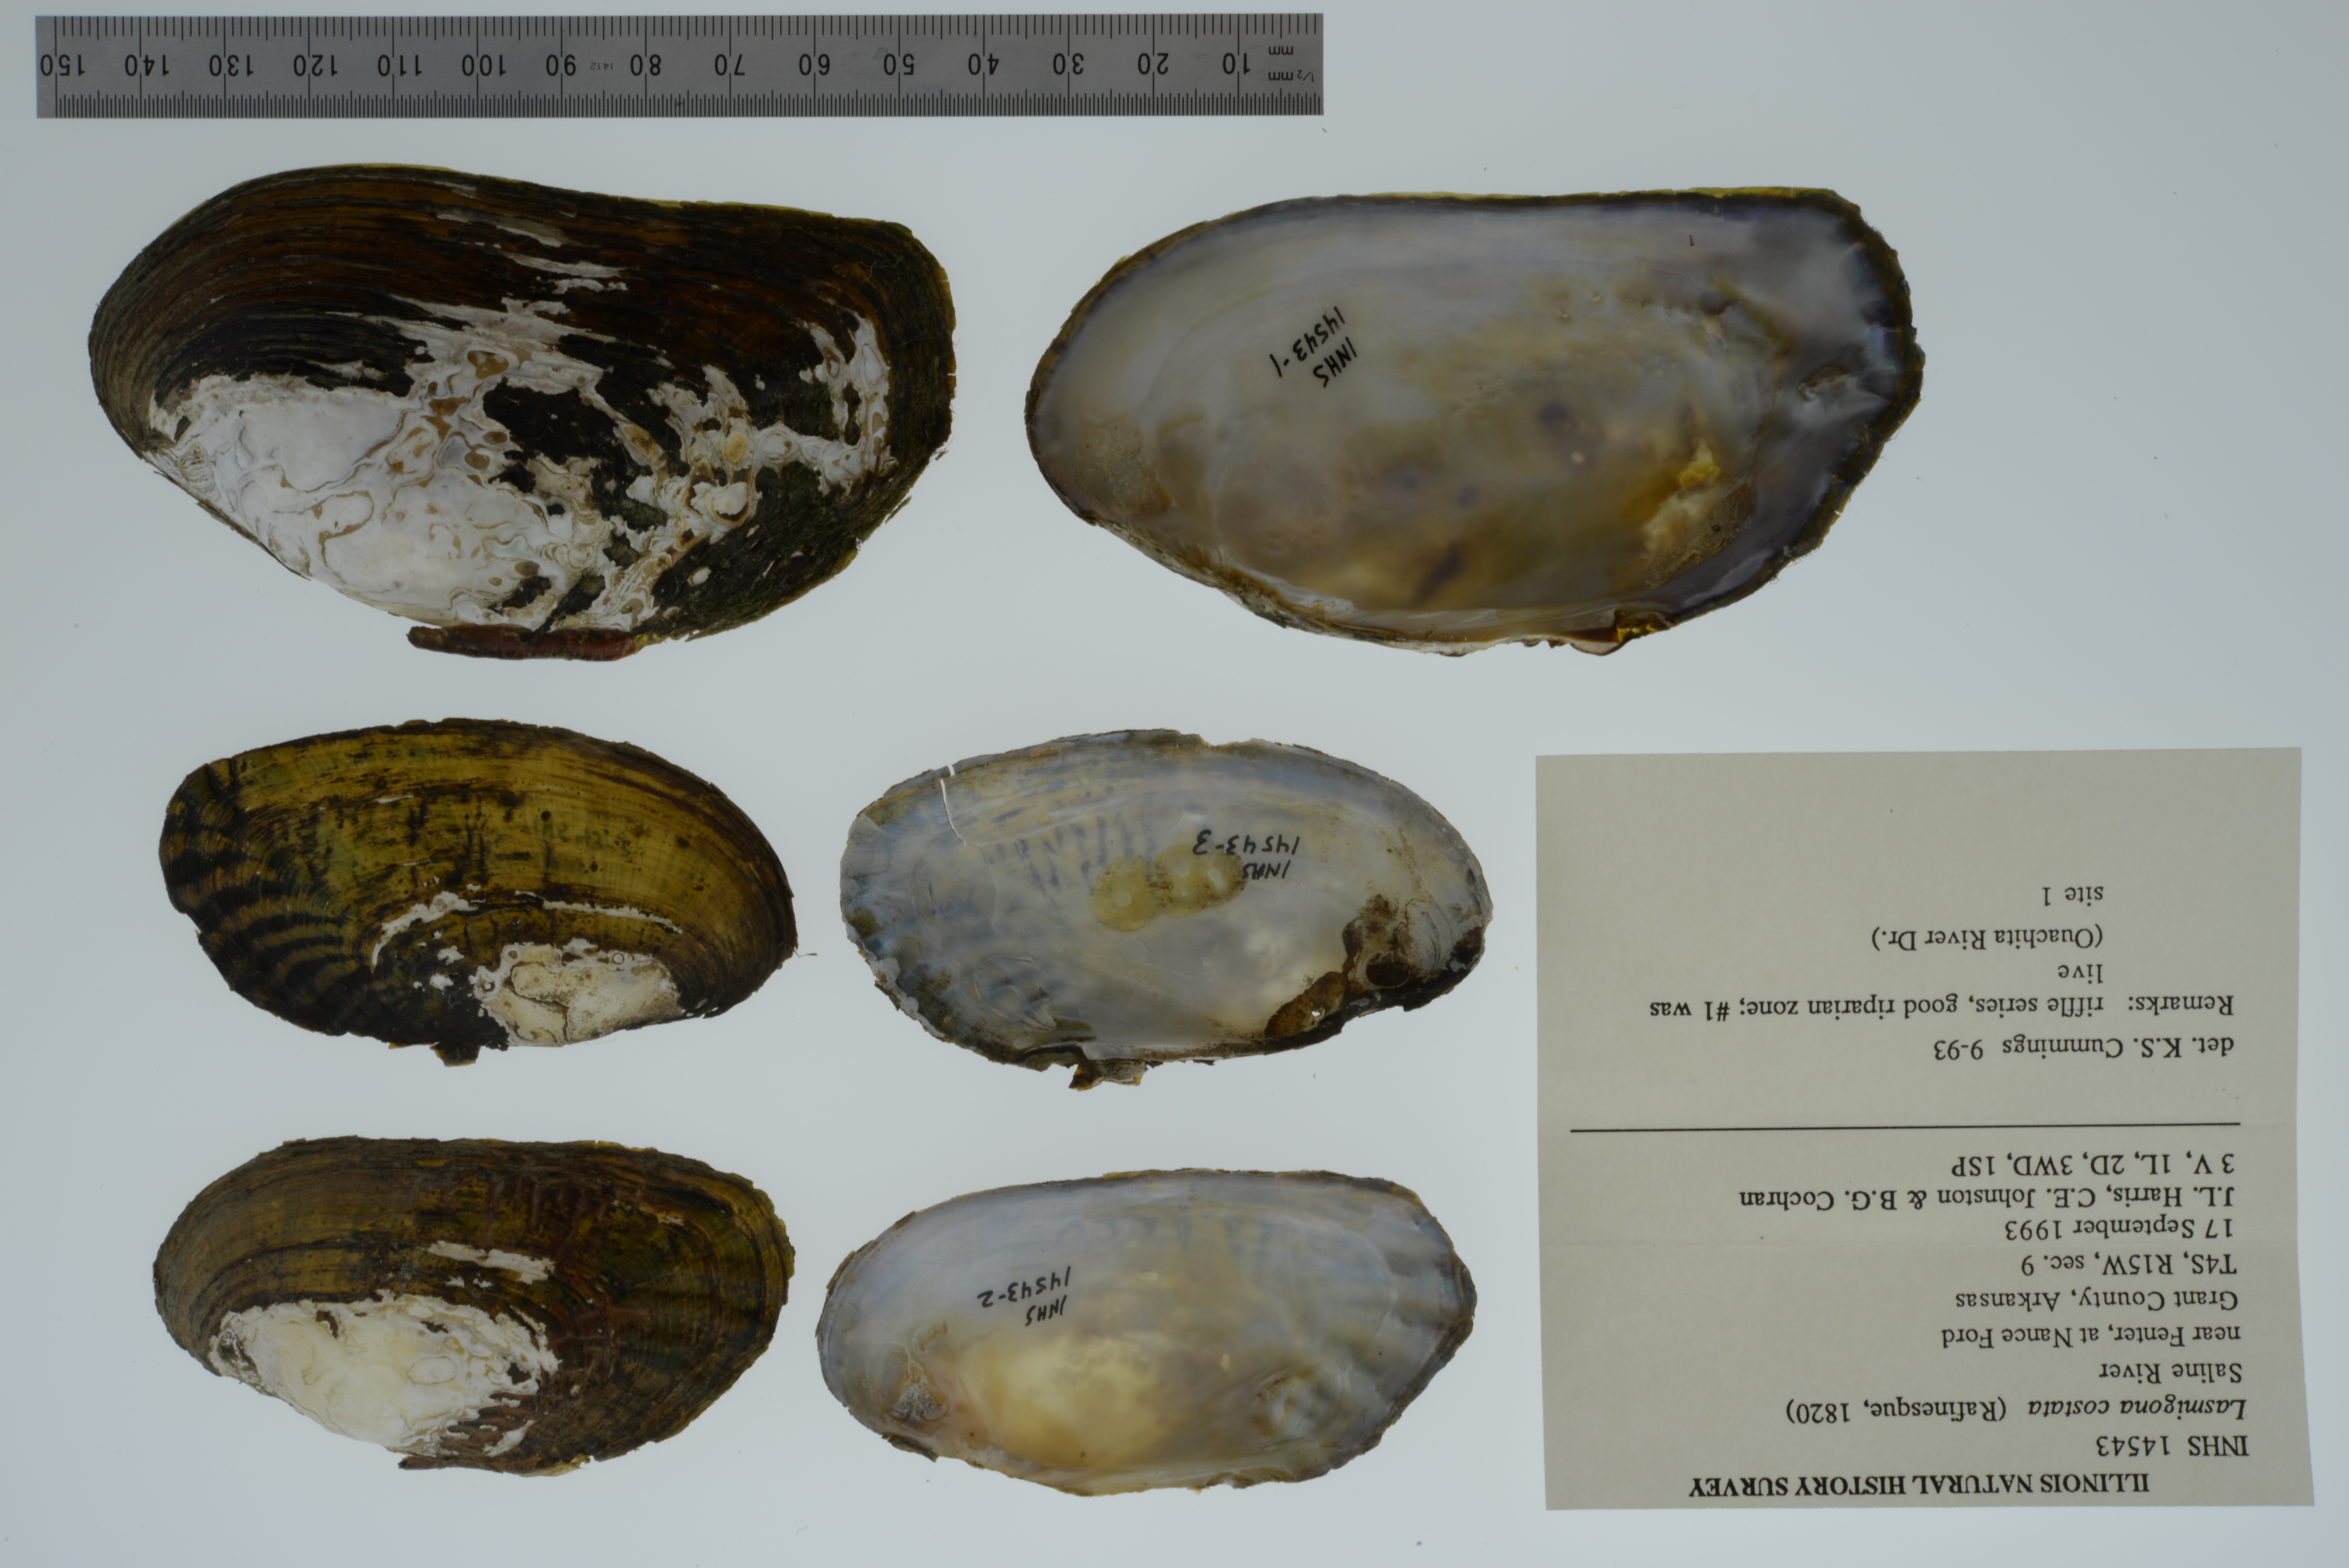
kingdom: Animalia
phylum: Mollusca
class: Bivalvia
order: Unionida
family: Unionidae
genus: Lasmigona
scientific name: Lasmigona costata
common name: Flutedshell
